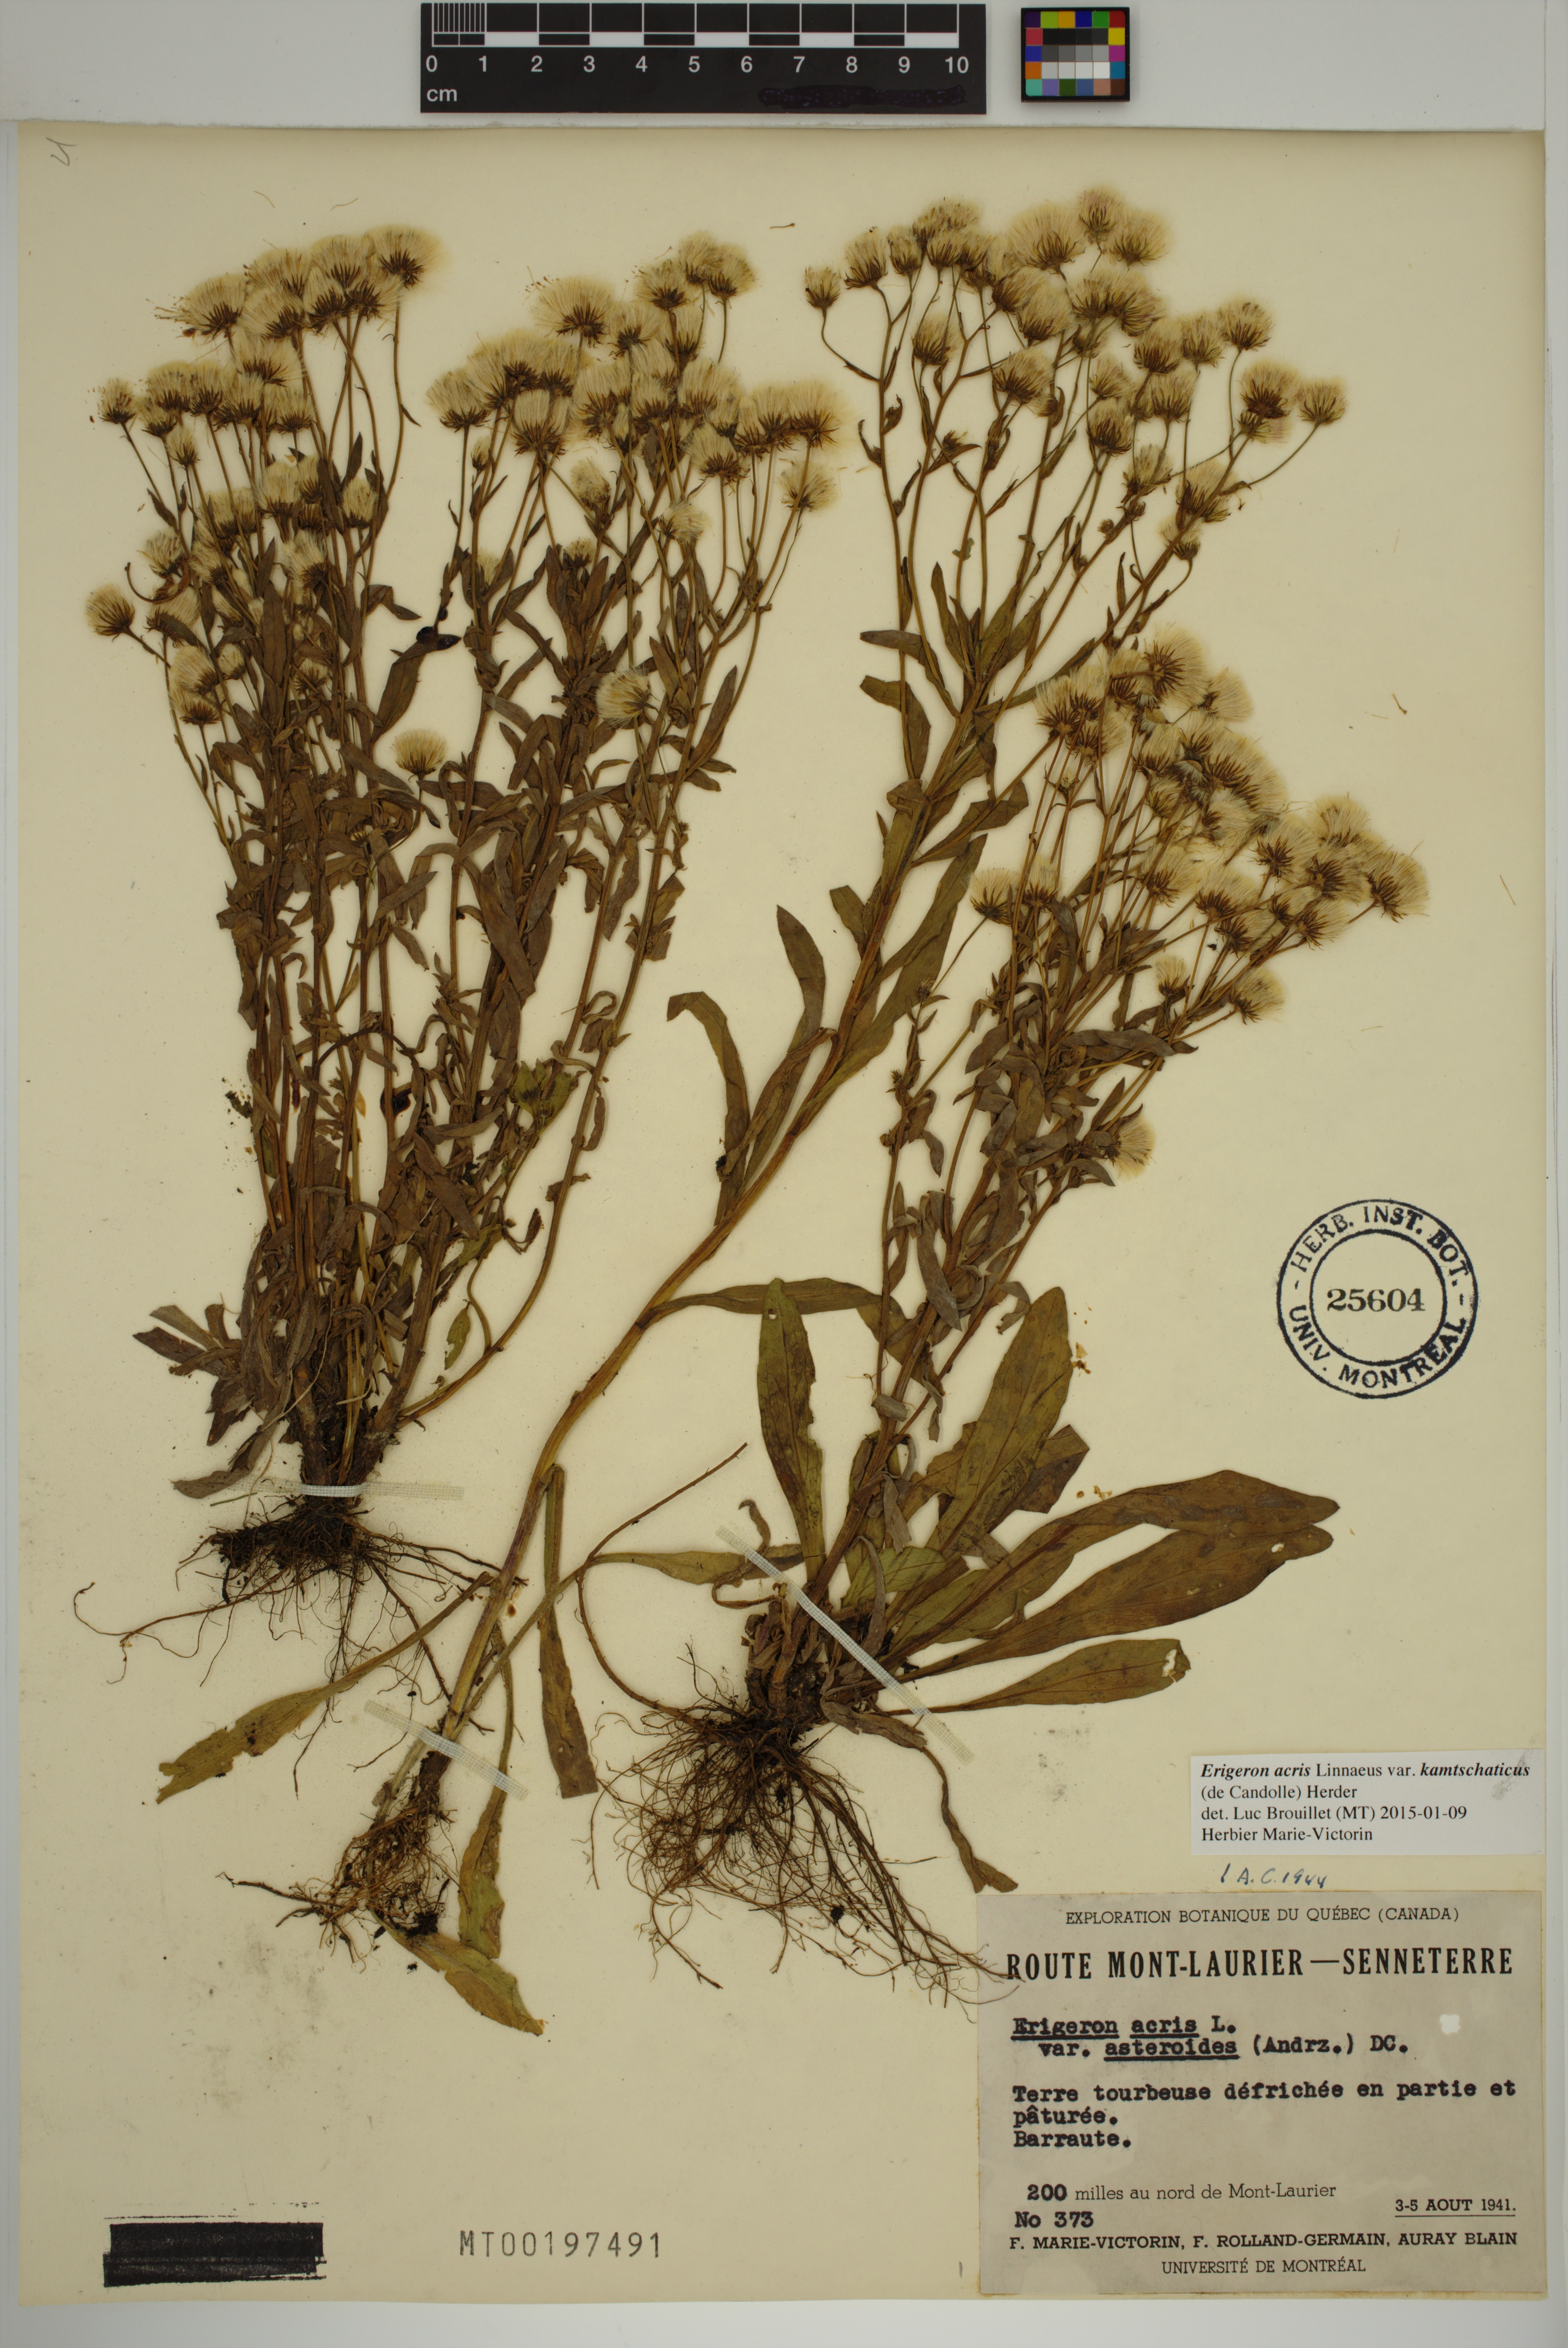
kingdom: Plantae
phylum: Tracheophyta
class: Magnoliopsida
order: Asterales
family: Asteraceae
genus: Erigeron
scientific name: Erigeron kamtschaticus
